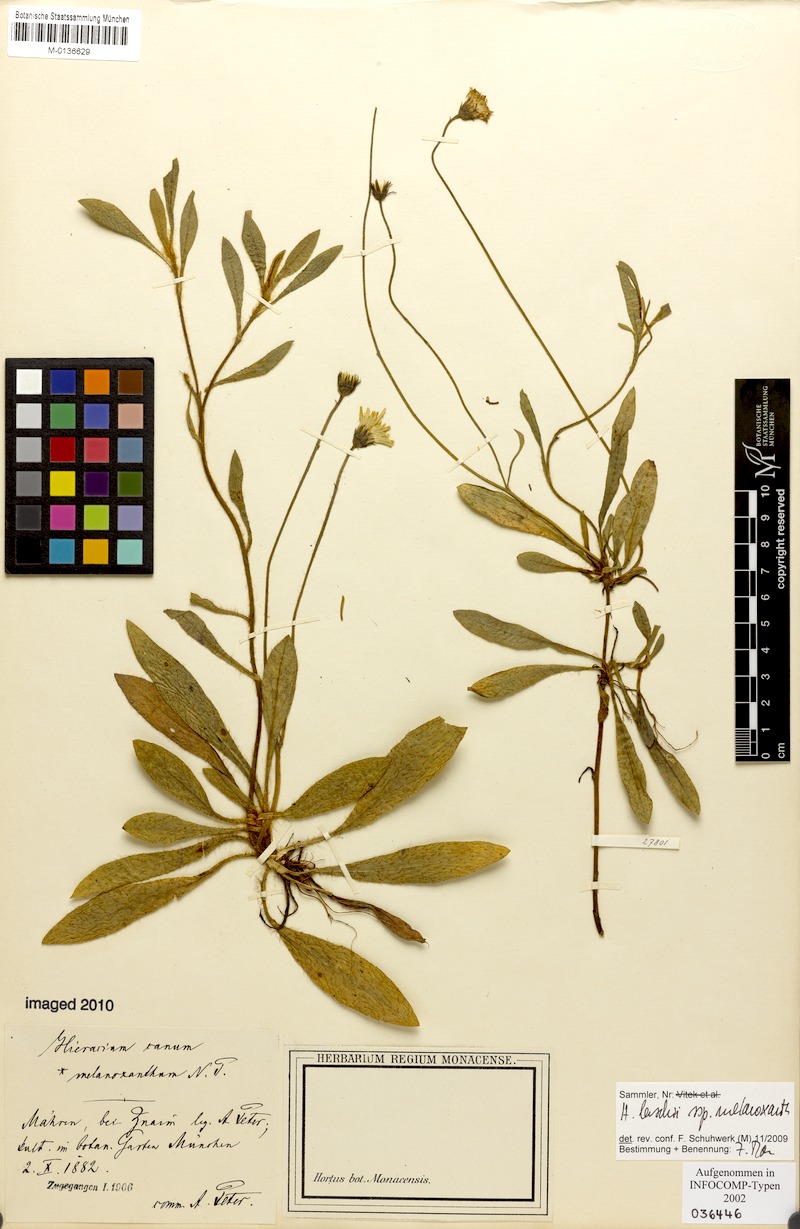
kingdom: Plantae
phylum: Tracheophyta
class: Magnoliopsida
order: Asterales
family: Asteraceae
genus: Pilosella
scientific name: Pilosella acutifolia
